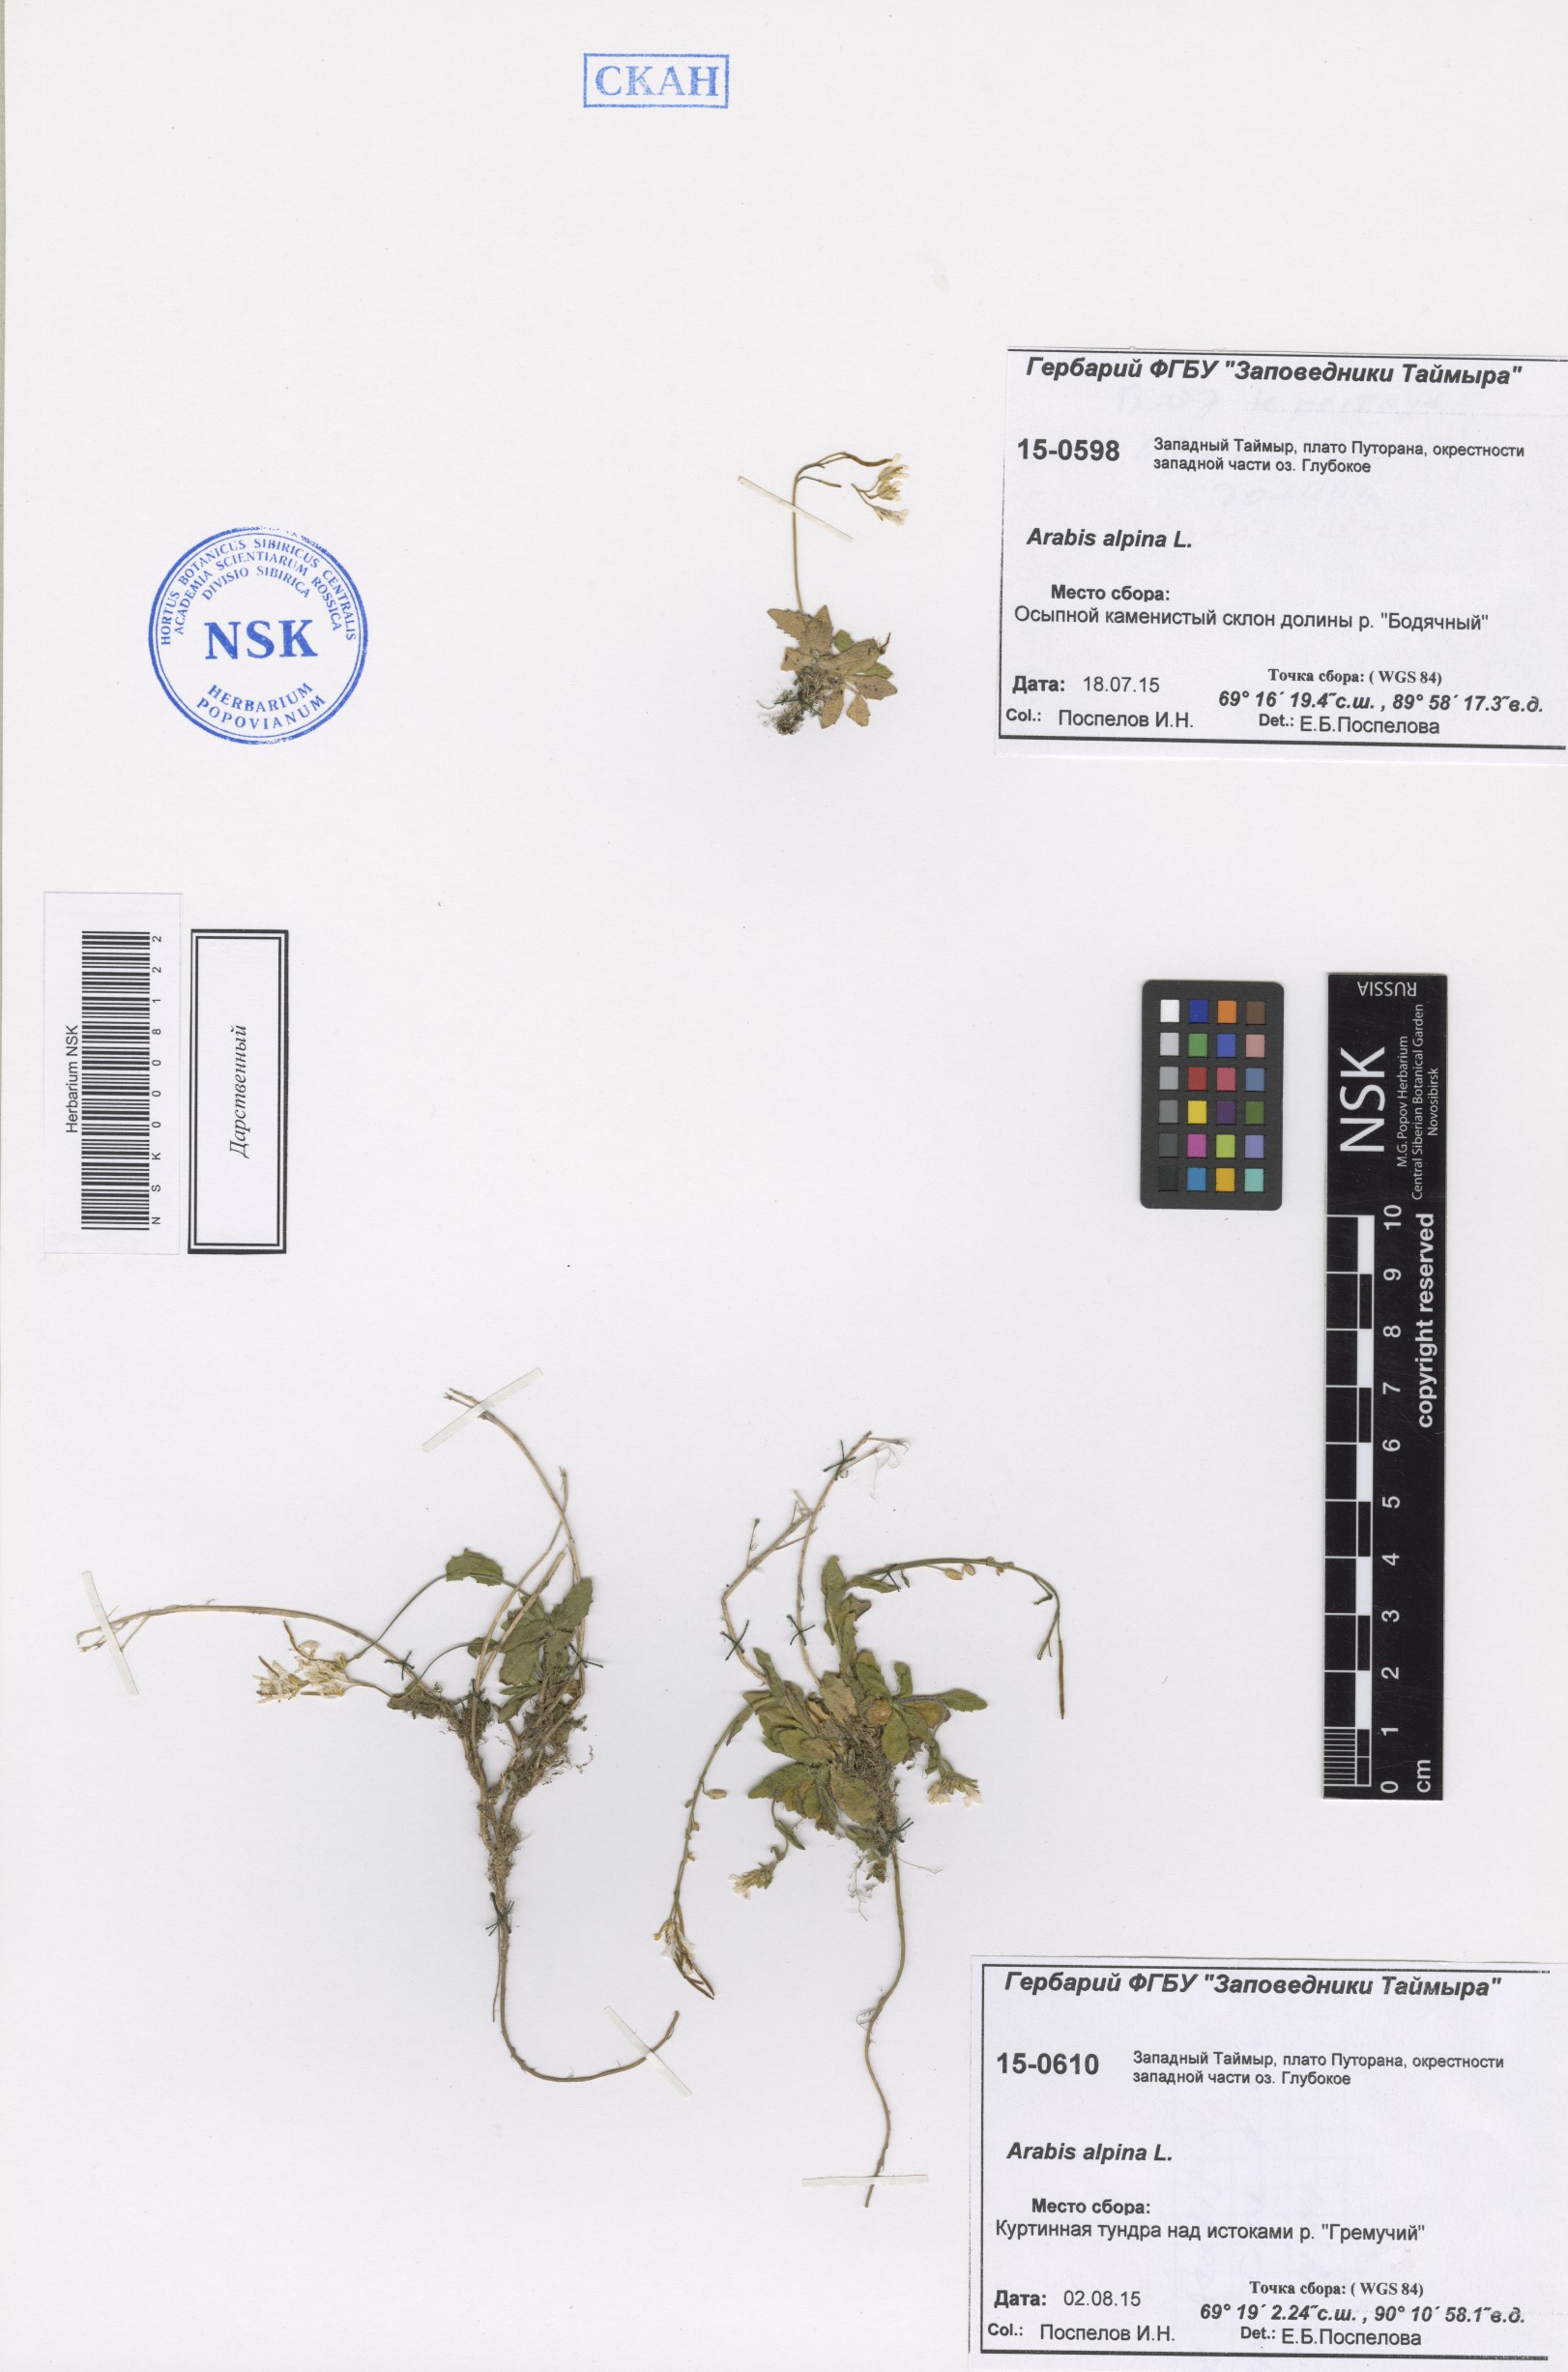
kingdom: Plantae
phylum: Tracheophyta
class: Magnoliopsida
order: Brassicales
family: Brassicaceae
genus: Arabis
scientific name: Arabis alpina
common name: Alpine rock-cress
